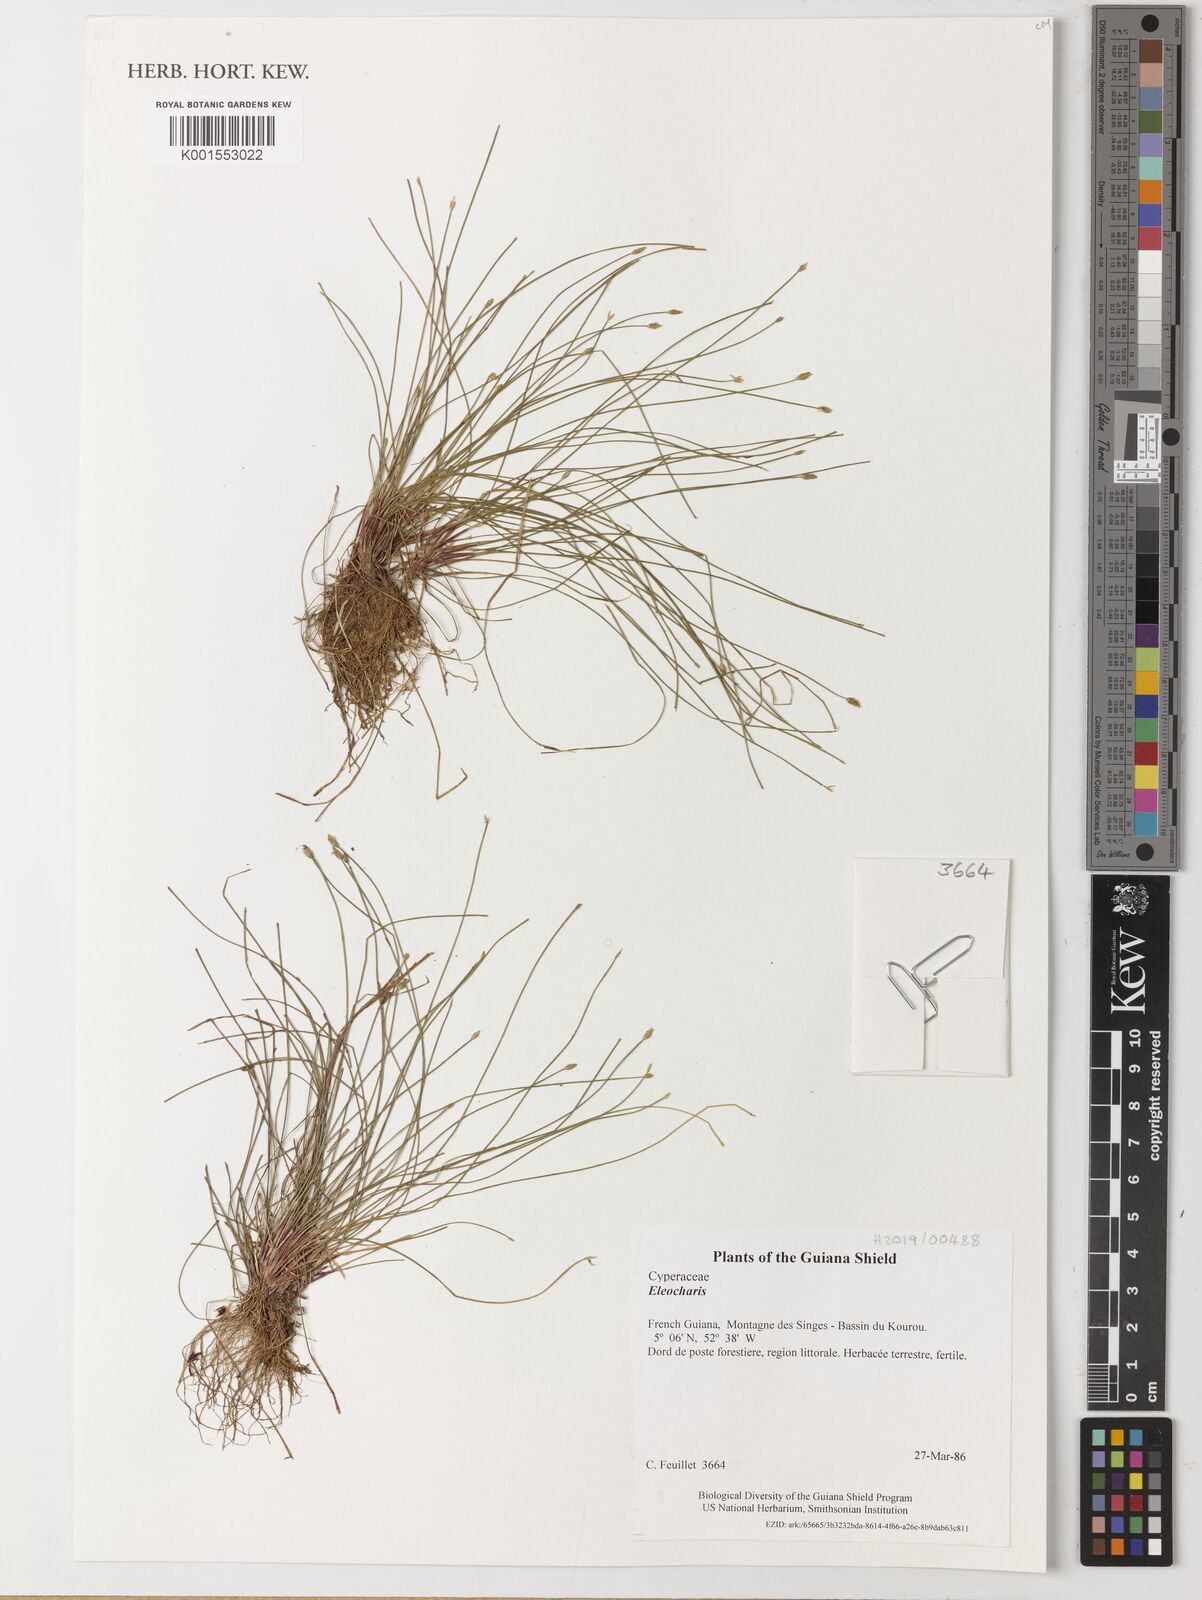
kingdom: Plantae
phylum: Tracheophyta
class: Liliopsida
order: Poales
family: Cyperaceae
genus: Eleocharis
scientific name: Eleocharis
